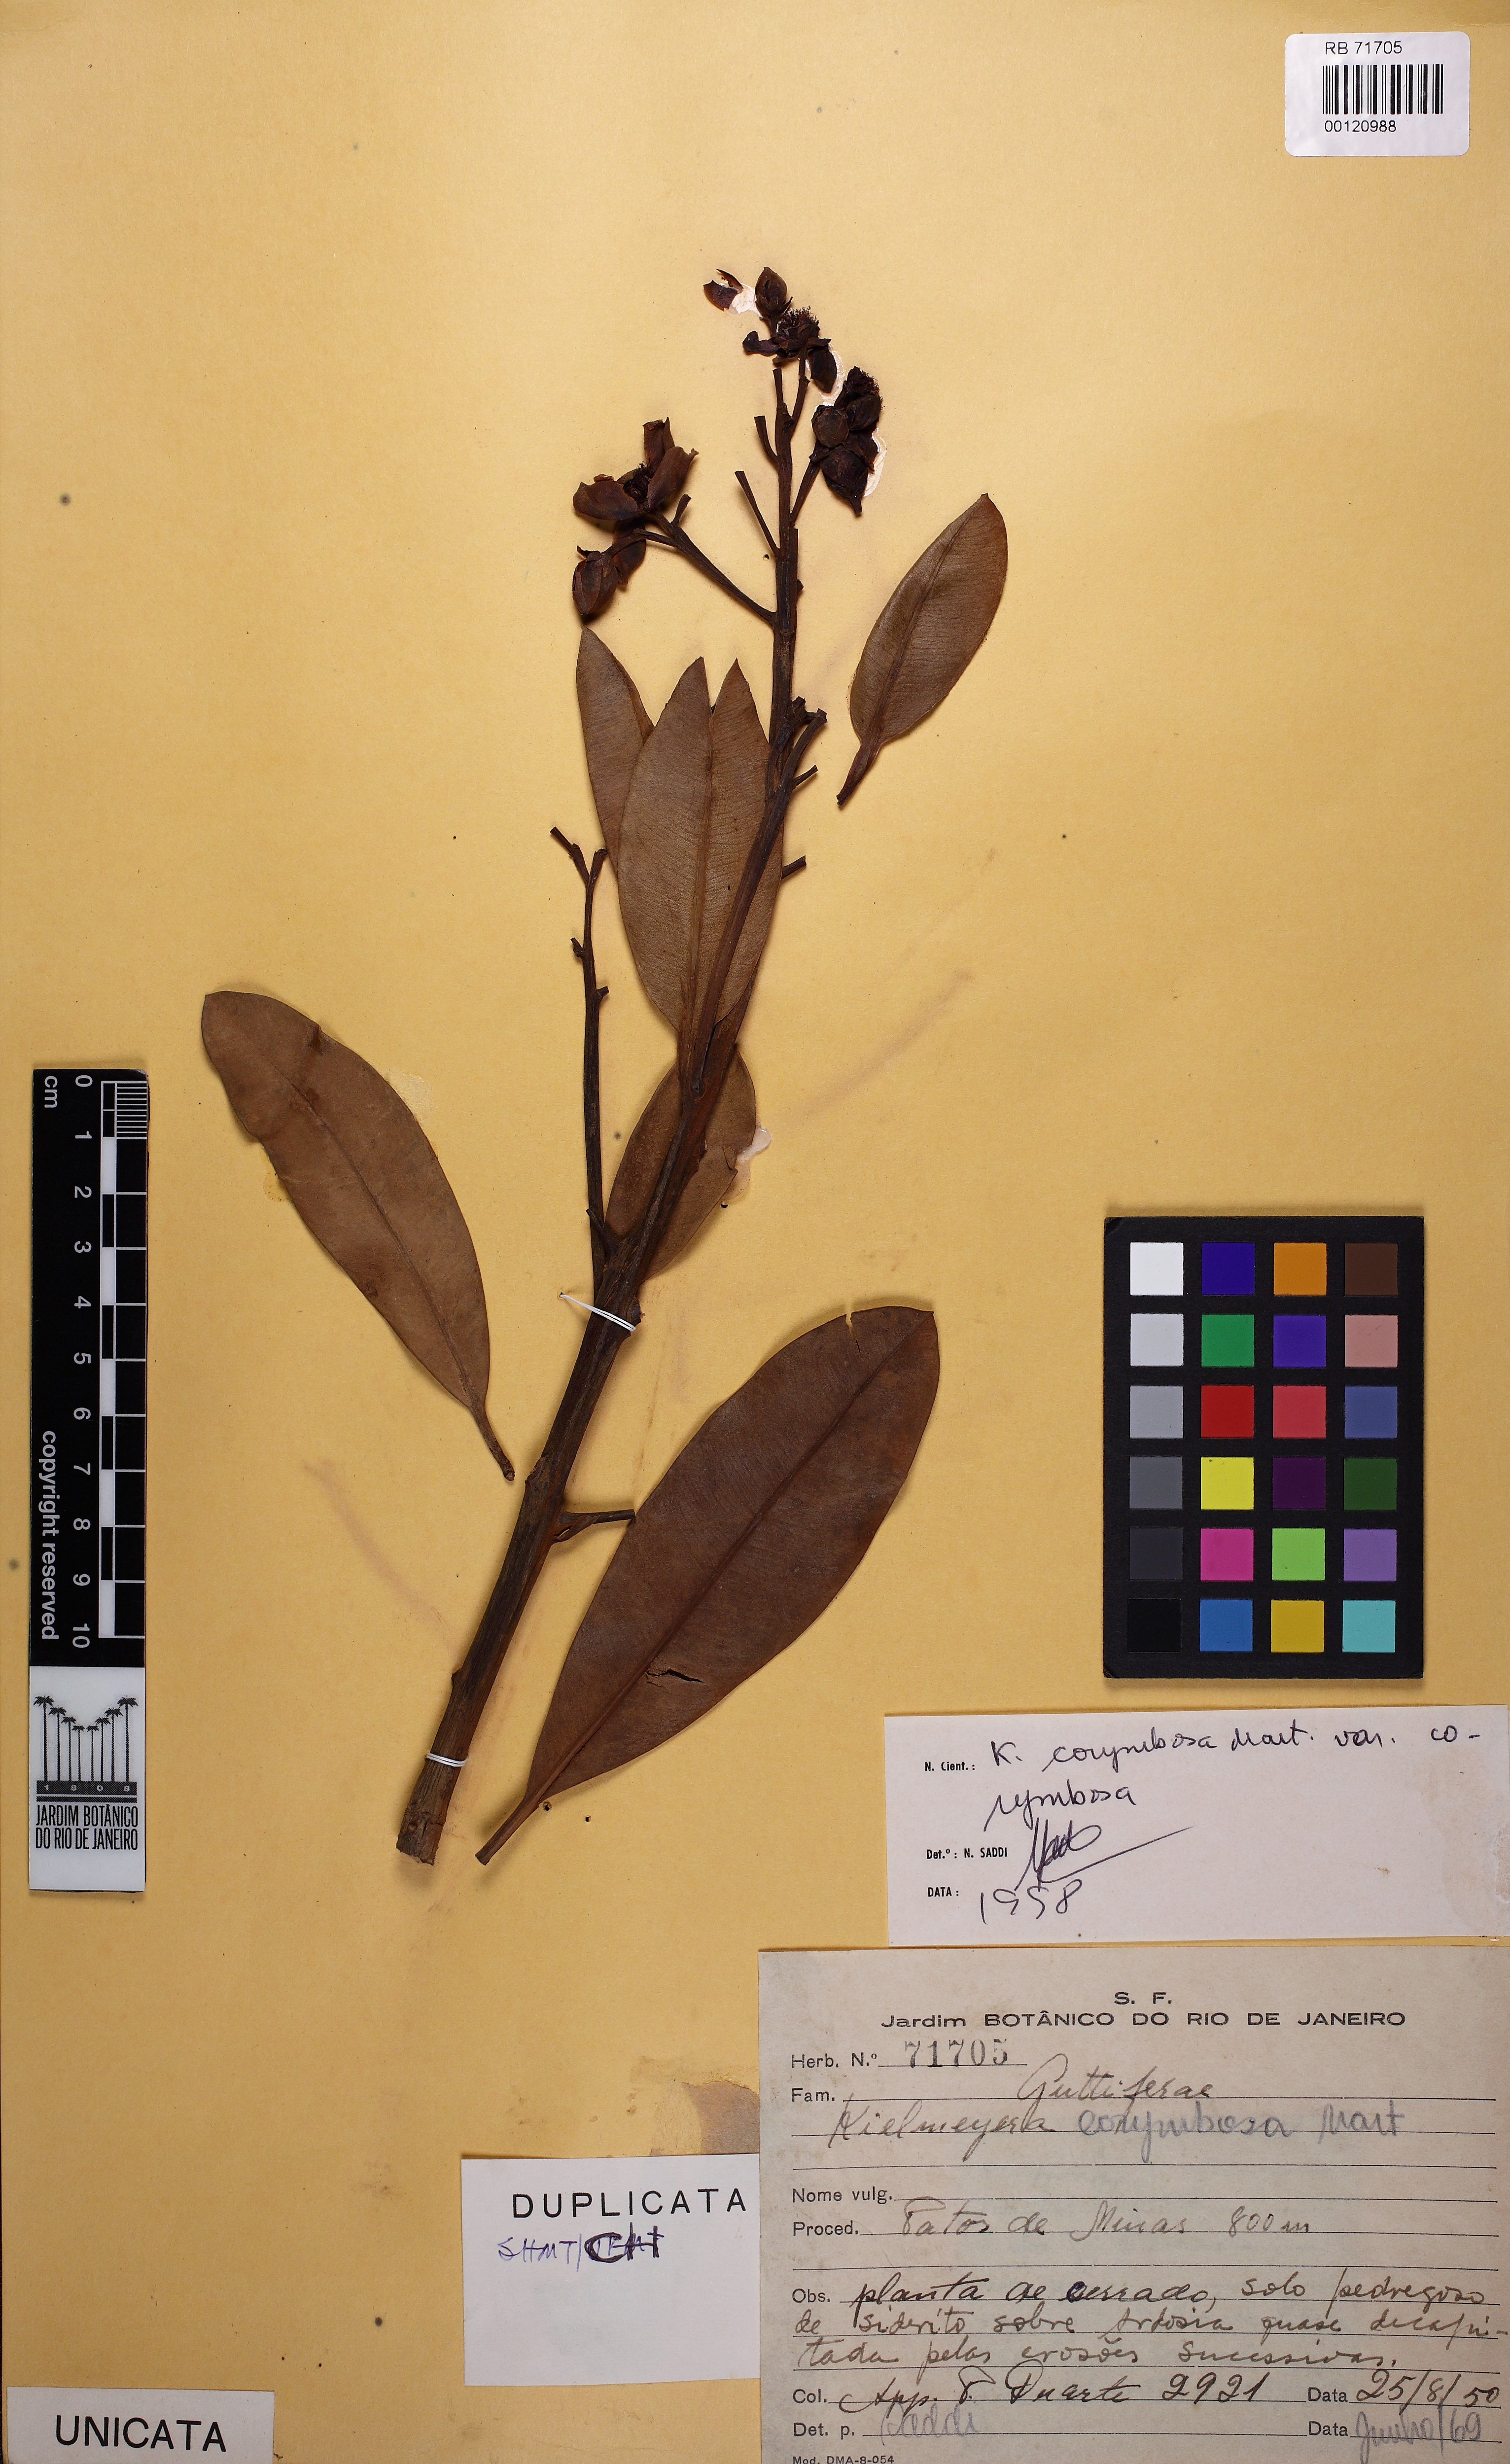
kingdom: Plantae
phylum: Tracheophyta
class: Magnoliopsida
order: Malpighiales
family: Calophyllaceae
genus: Kielmeyera
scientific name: Kielmeyera corymbosa
